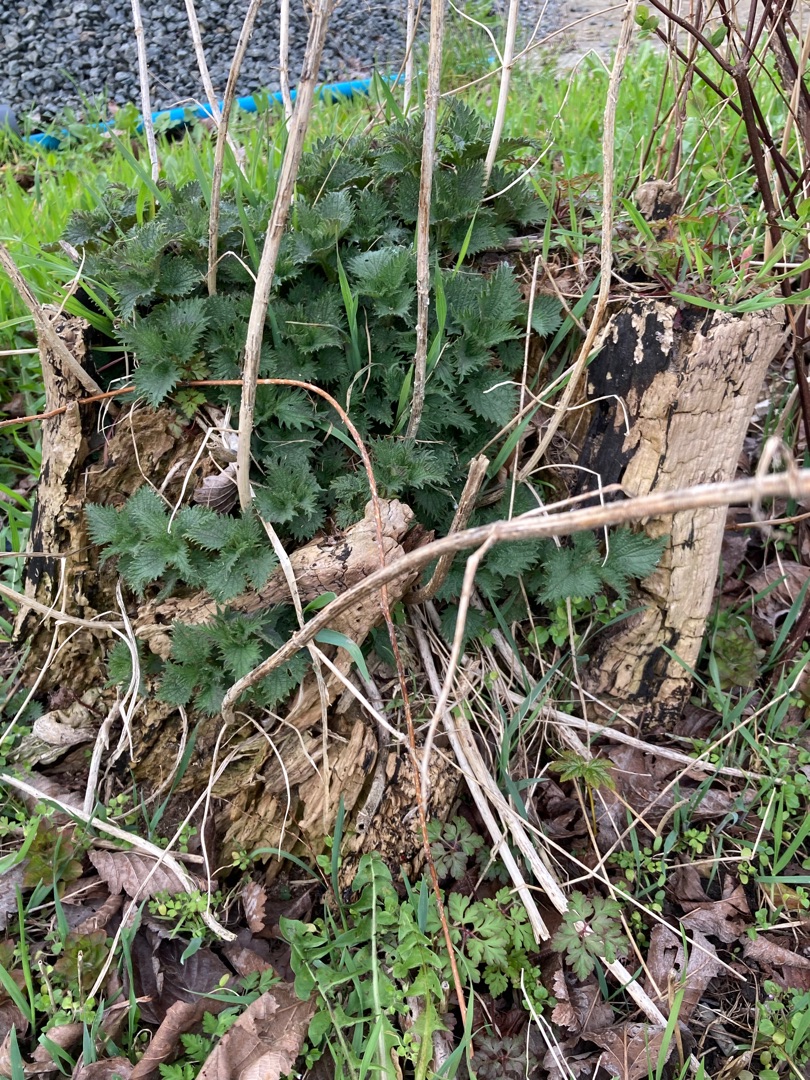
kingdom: Plantae
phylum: Tracheophyta
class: Magnoliopsida
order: Rosales
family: Urticaceae
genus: Urtica
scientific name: Urtica dioica
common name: Stor nælde
